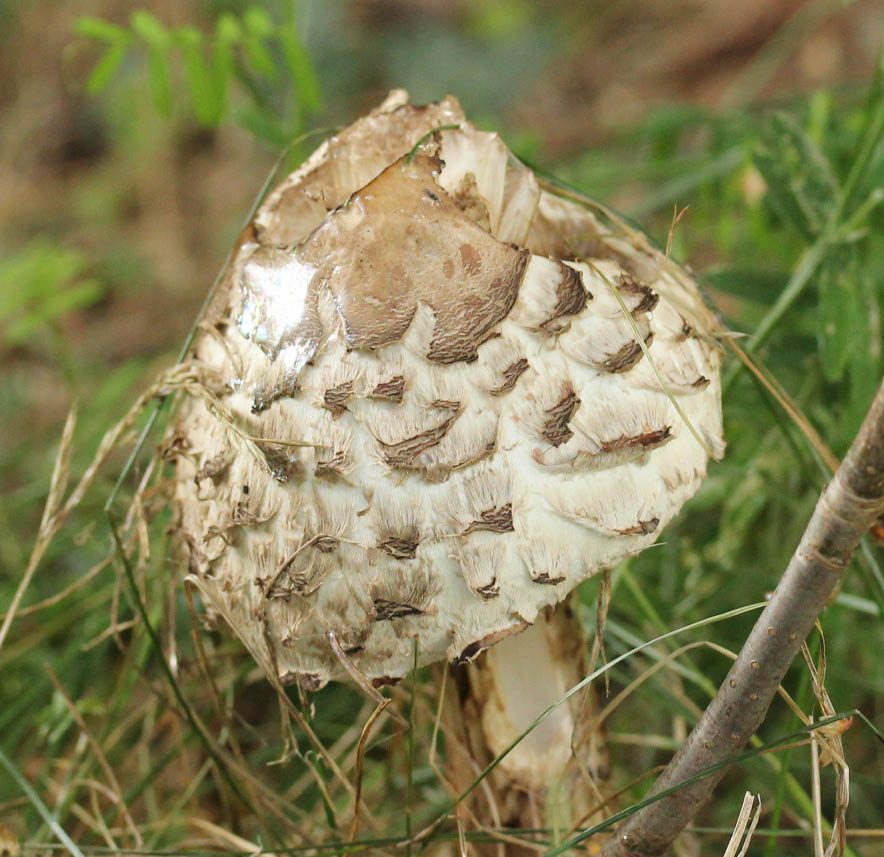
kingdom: Fungi
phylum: Basidiomycota
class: Agaricomycetes
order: Agaricales
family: Agaricaceae
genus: Chlorophyllum
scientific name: Chlorophyllum rhacodes
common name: ægte rabarberhat
